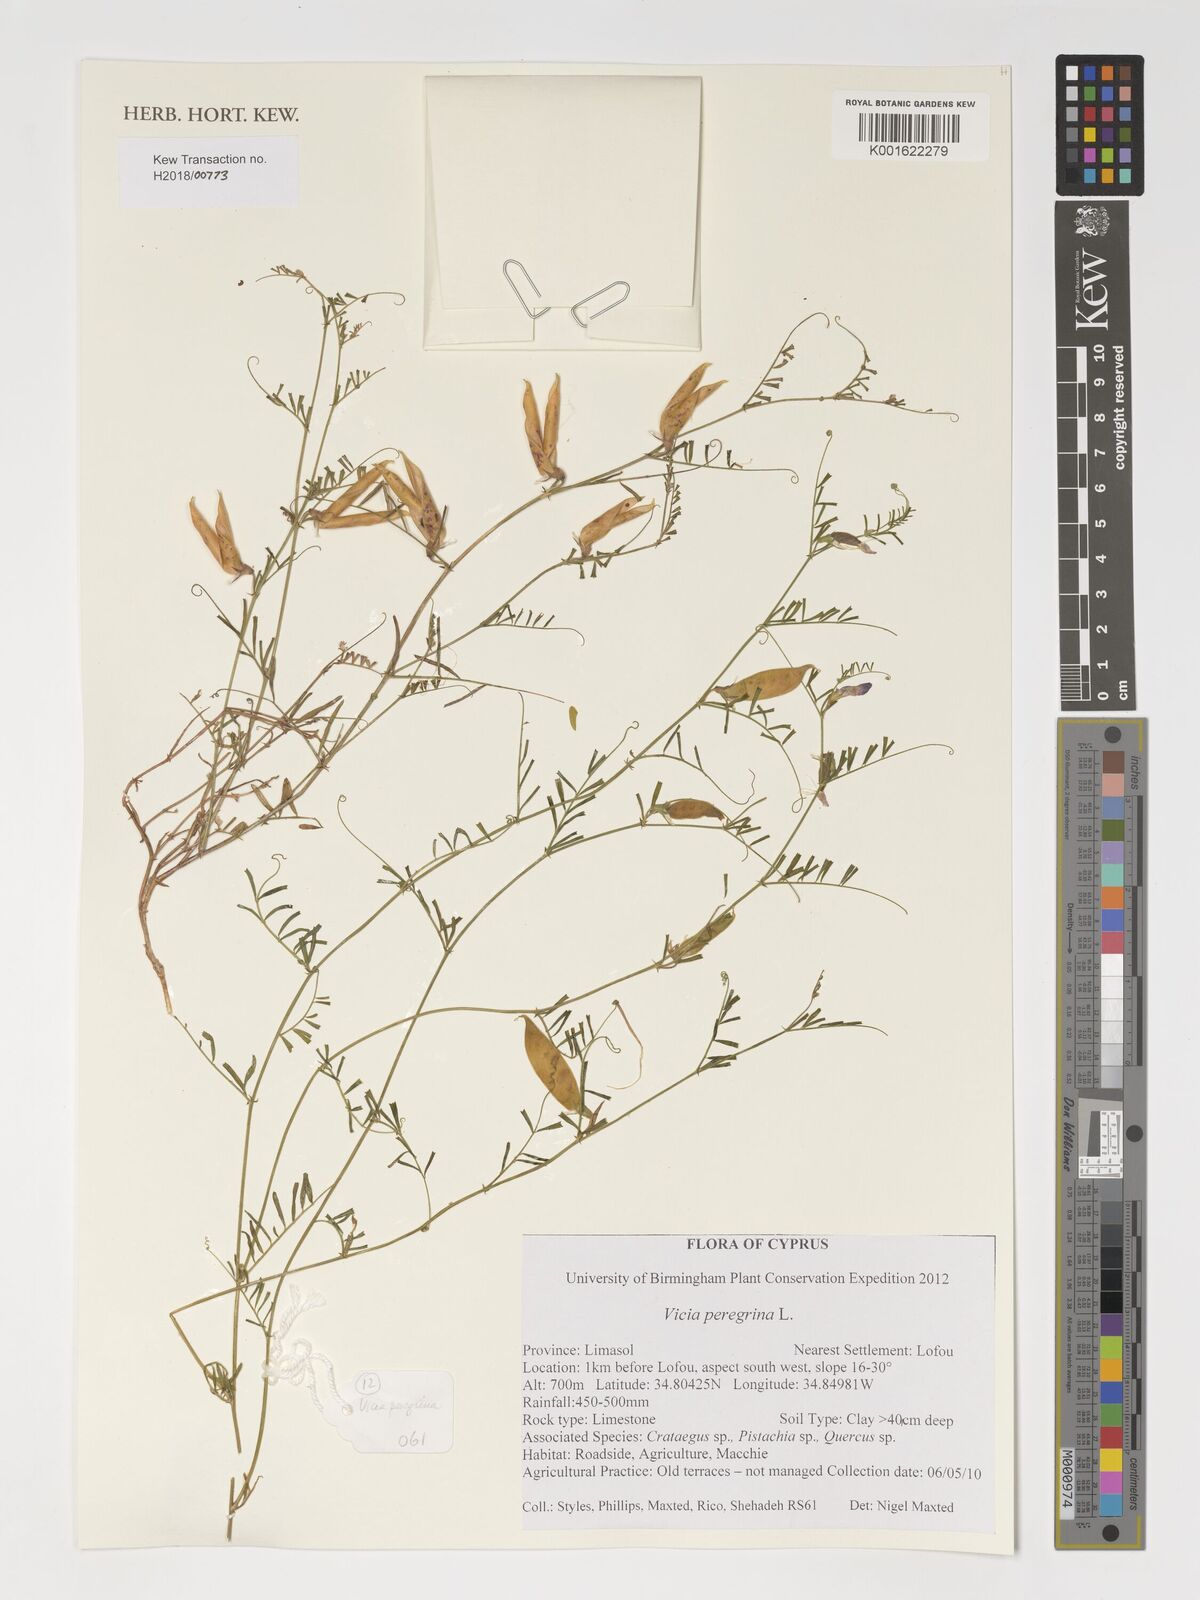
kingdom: Plantae
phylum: Tracheophyta
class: Magnoliopsida
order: Fabales
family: Fabaceae
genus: Vicia
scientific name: Vicia peregrina
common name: Broad-pod vetch
